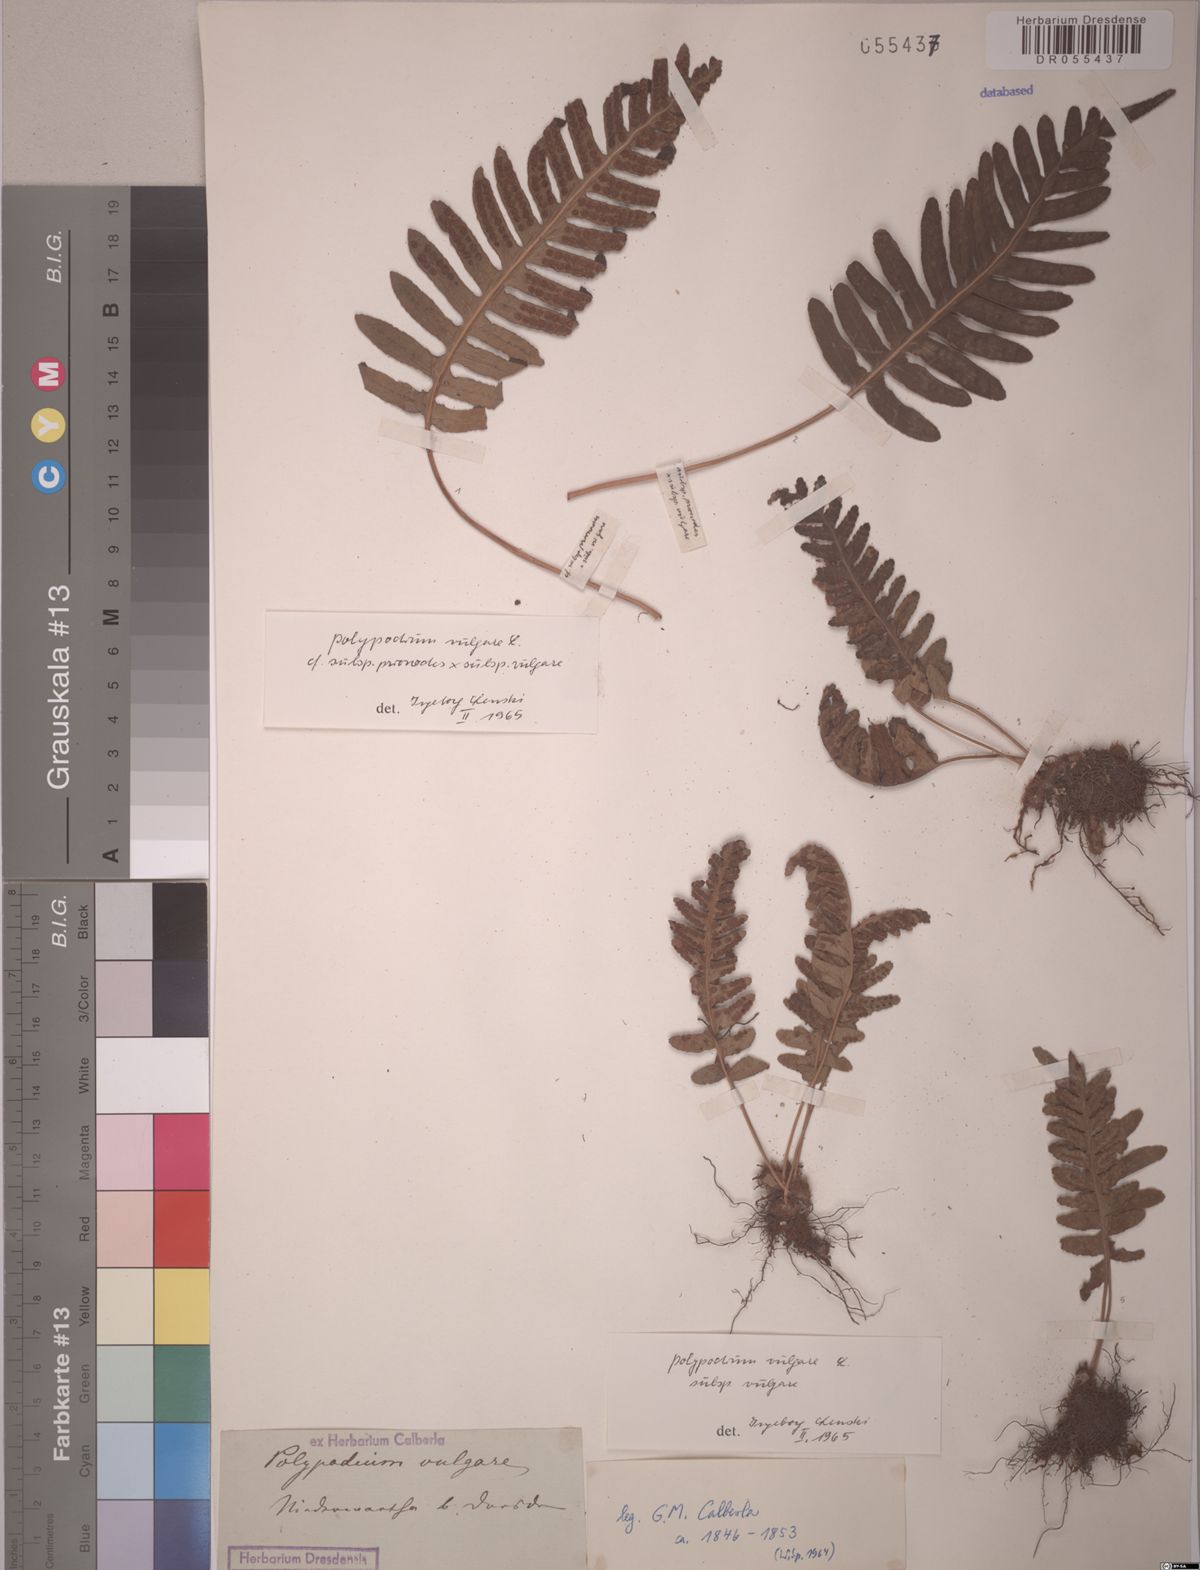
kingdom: Plantae
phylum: Tracheophyta
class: Polypodiopsida
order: Polypodiales
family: Polypodiaceae
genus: Polypodium
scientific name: Polypodium vulgare
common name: Common polypody
